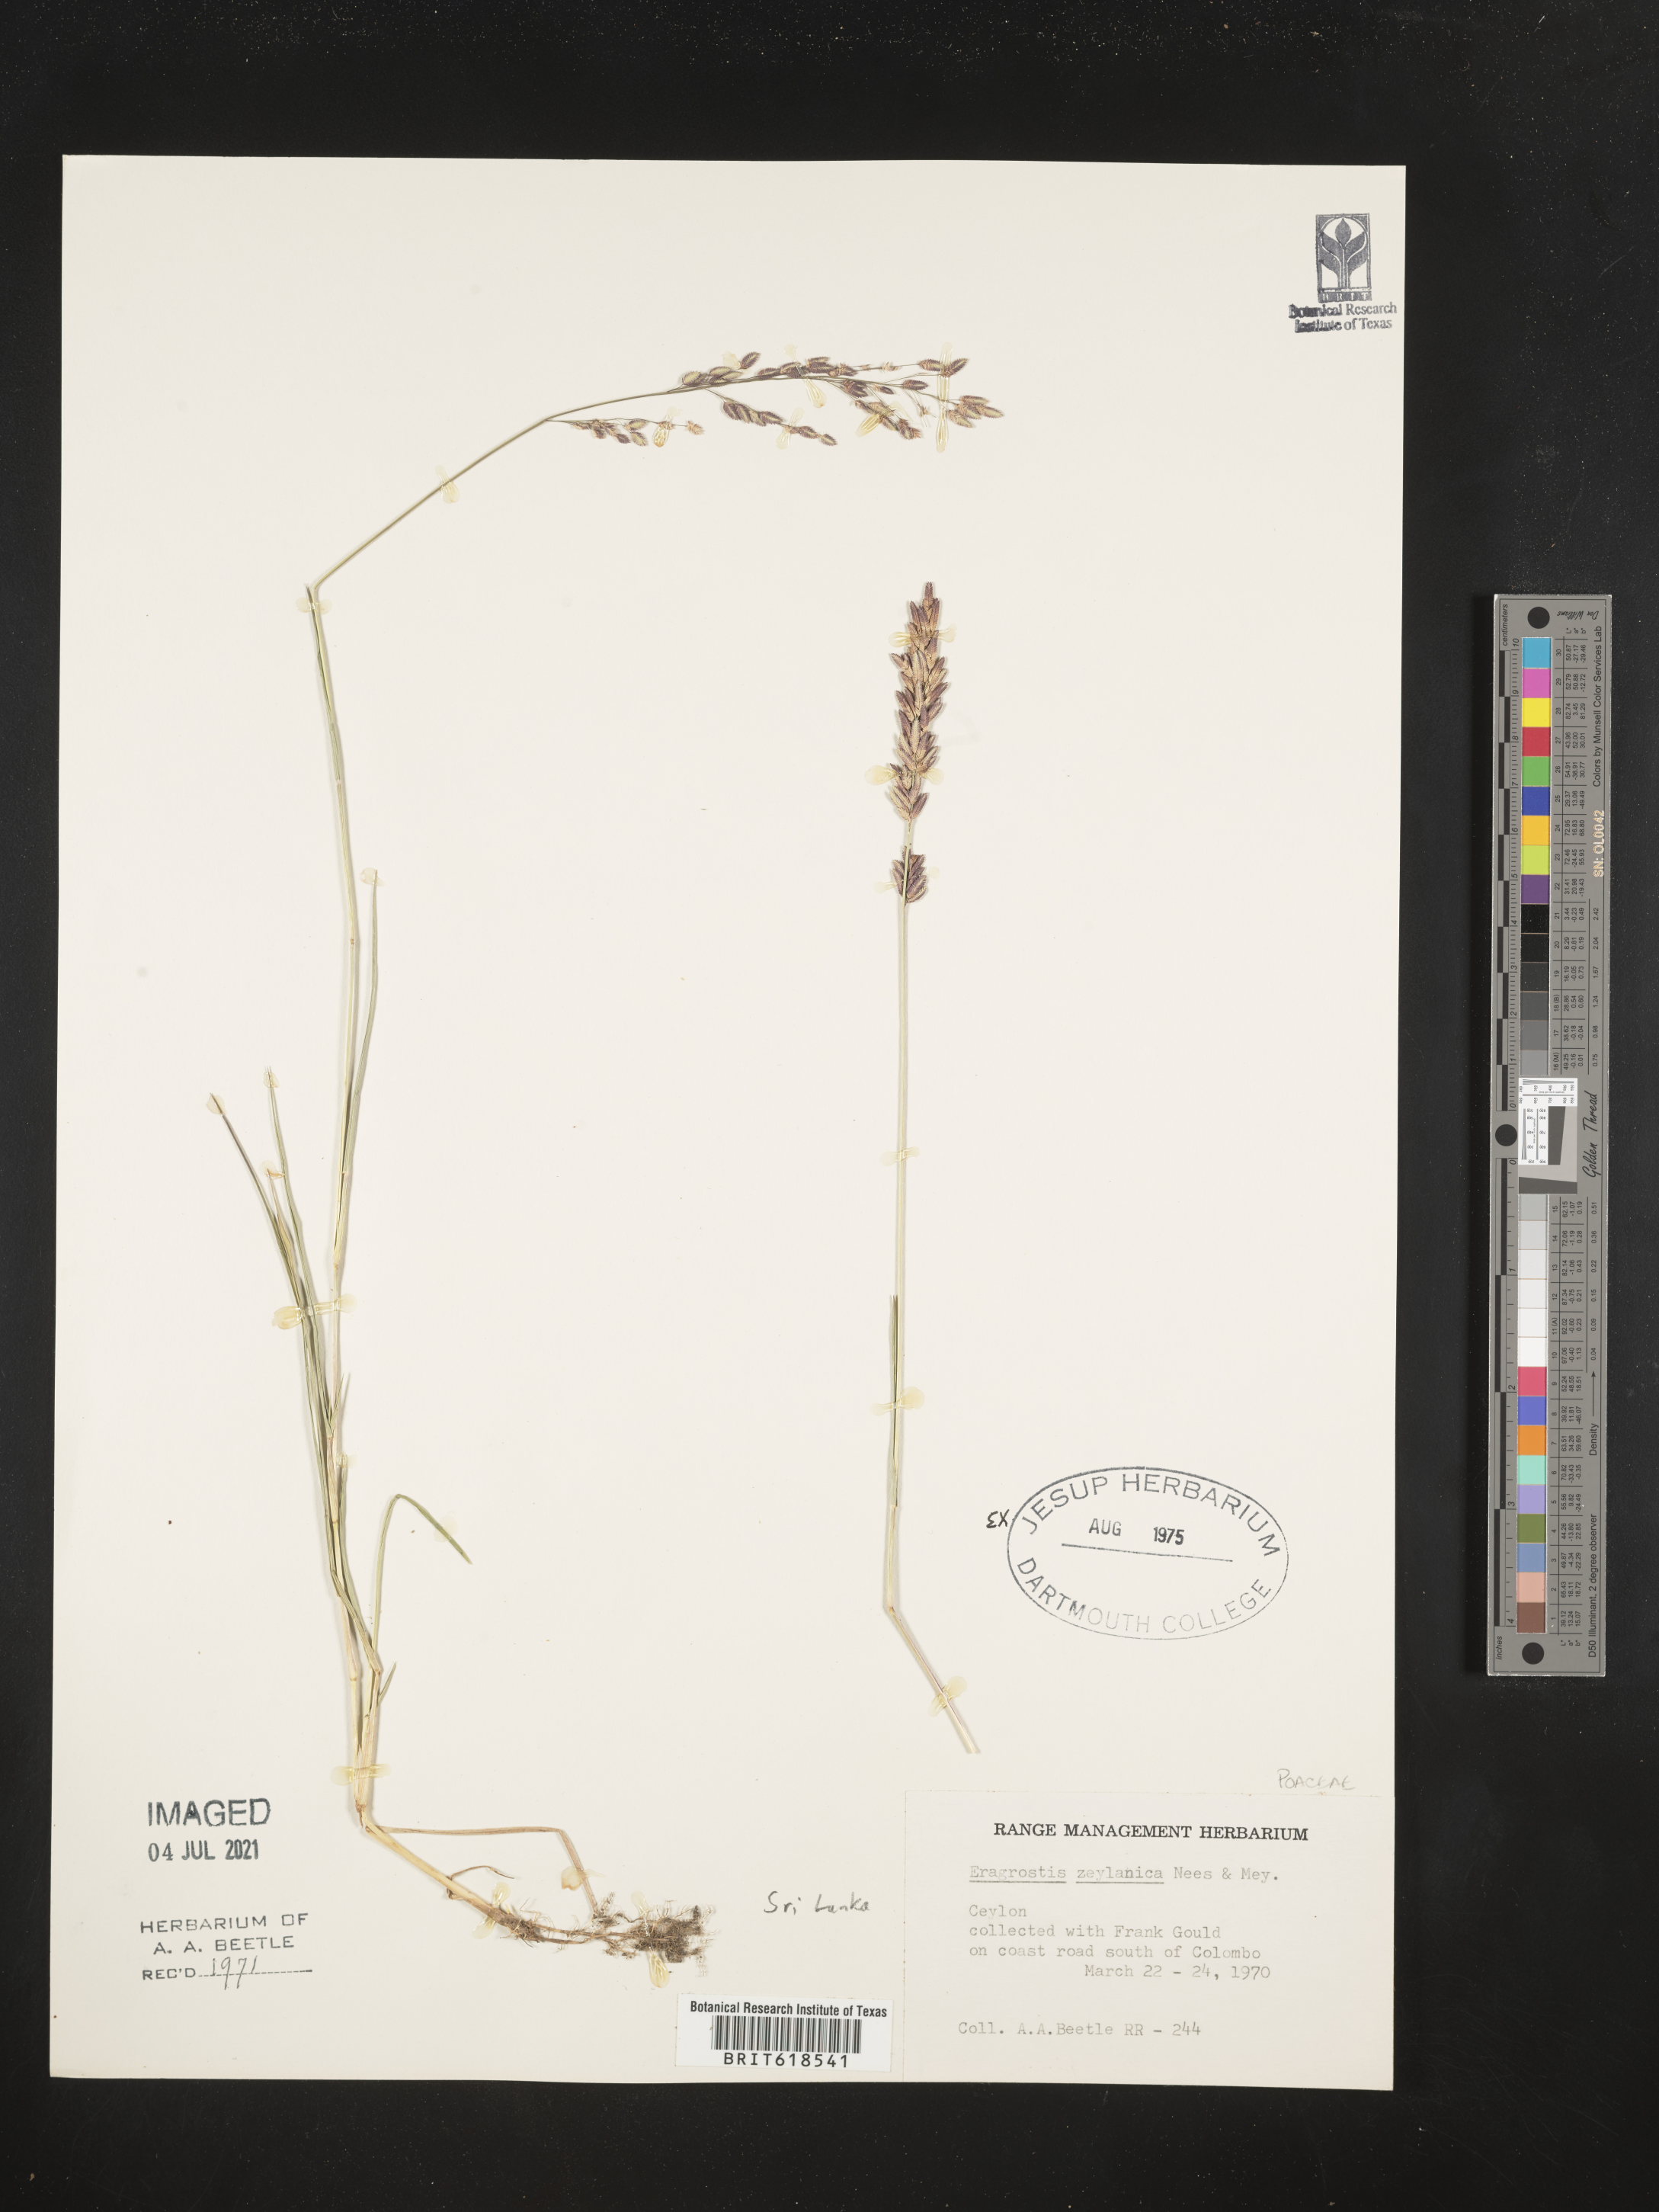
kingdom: Plantae
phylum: Tracheophyta
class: Liliopsida
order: Poales
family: Poaceae
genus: Eragrostis
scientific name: Eragrostis zeylanica
